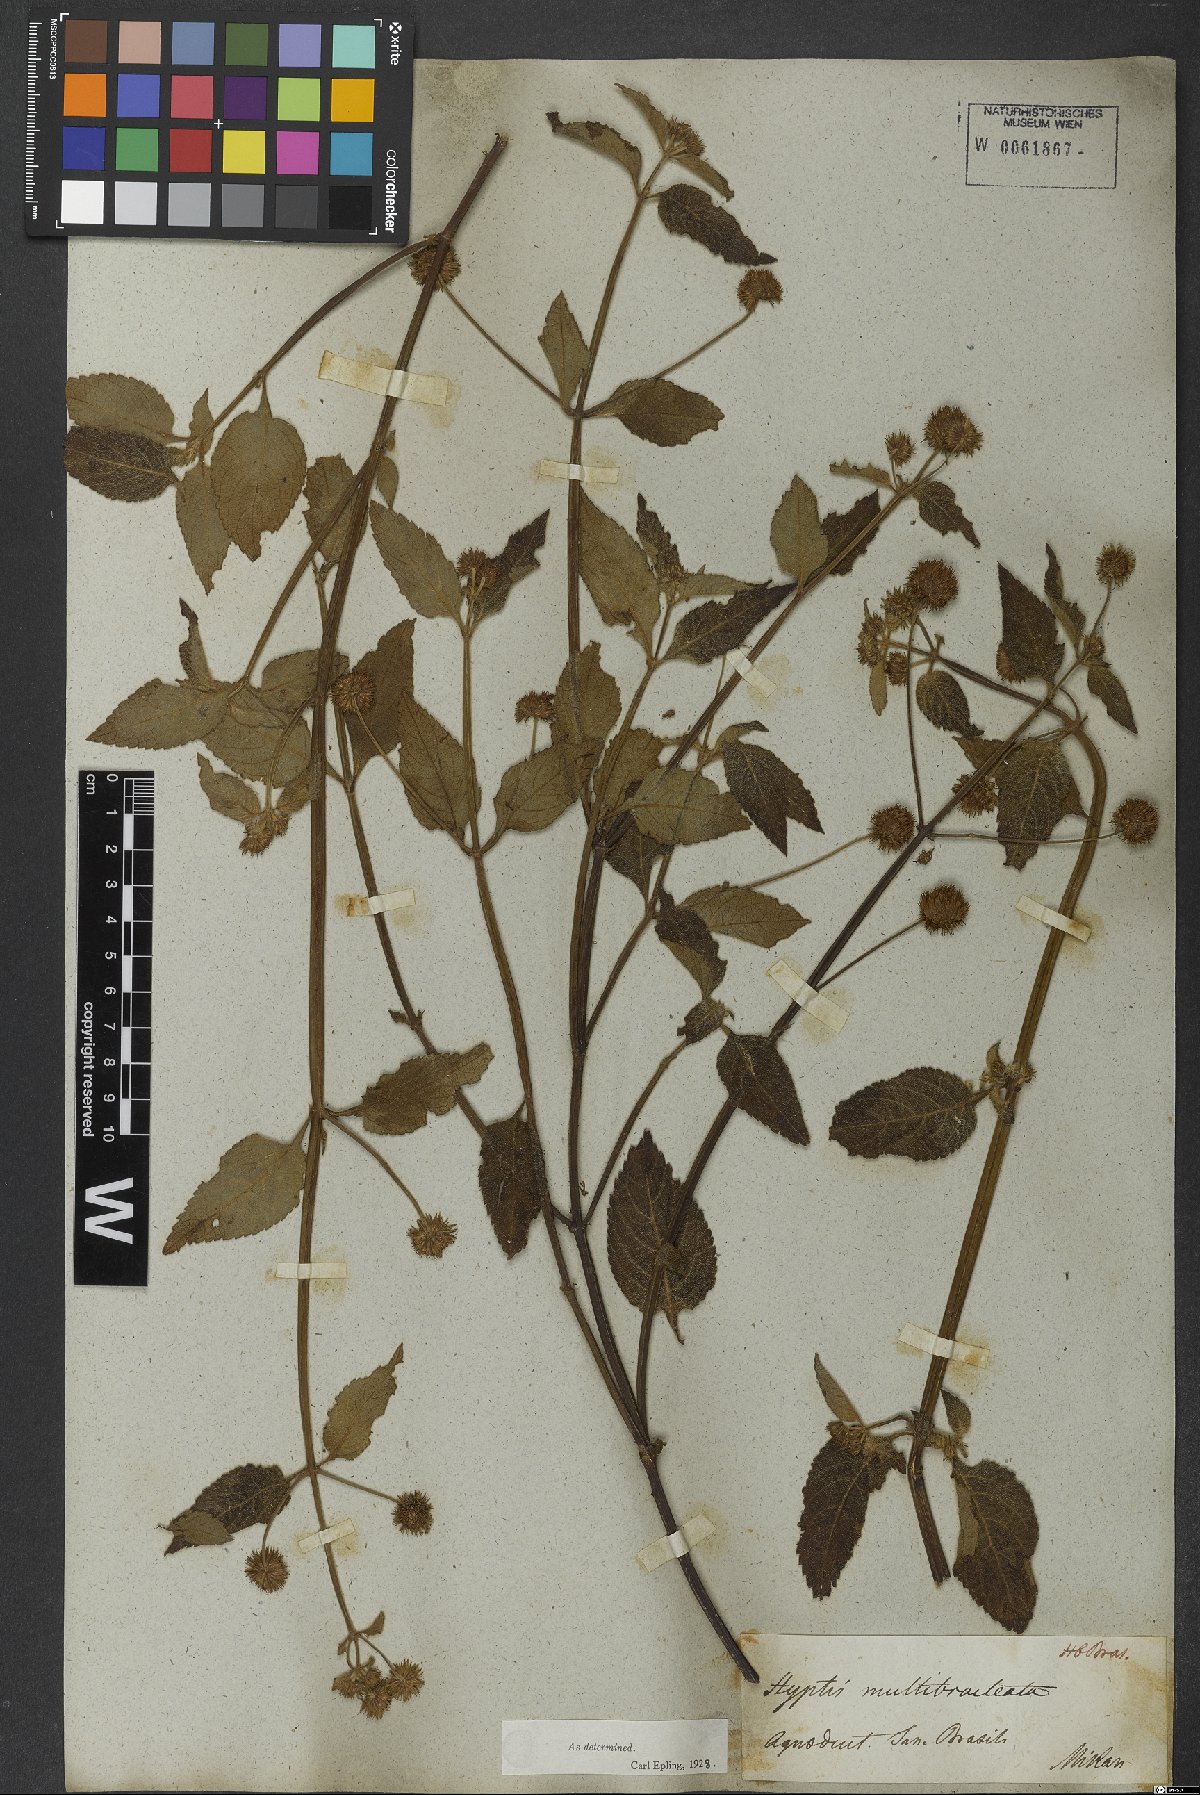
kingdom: Plantae
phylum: Tracheophyta
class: Magnoliopsida
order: Lamiales
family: Lamiaceae
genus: Hyptis
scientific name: Hyptis multibracteata
